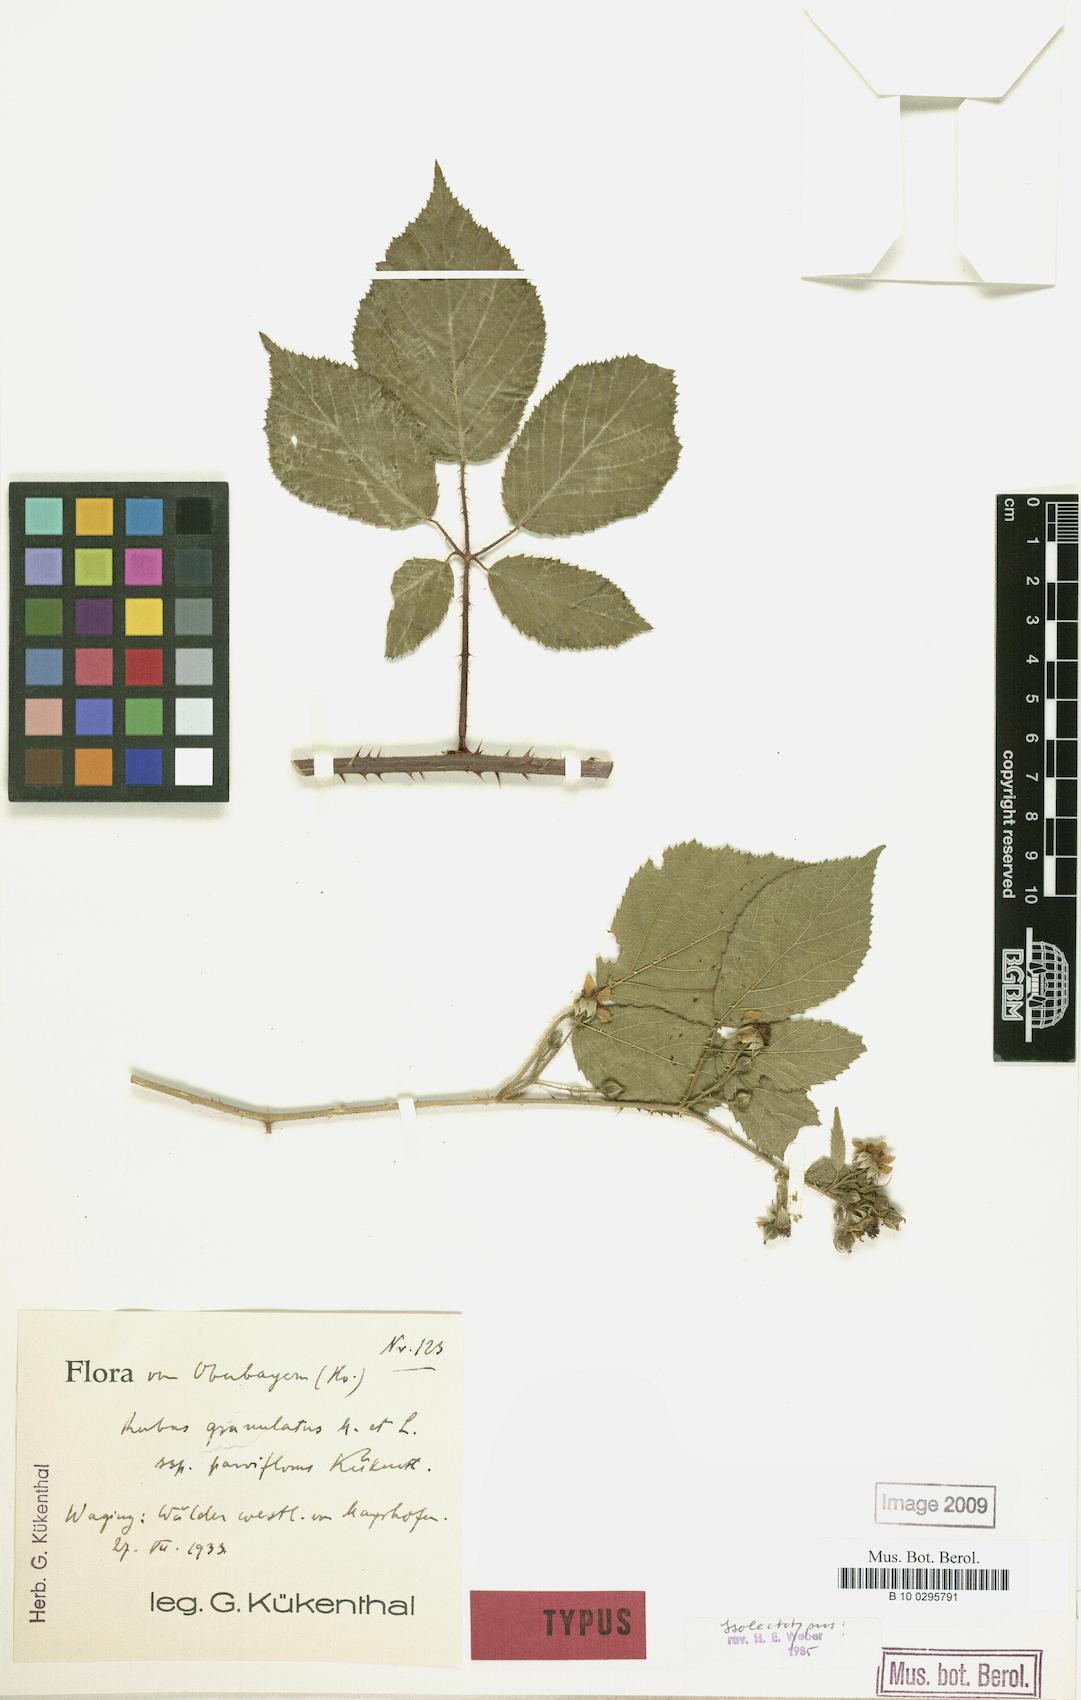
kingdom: Plantae
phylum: Tracheophyta
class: Magnoliopsida
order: Rosales
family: Rosaceae
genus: Rubus
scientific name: Rubus granulatus
